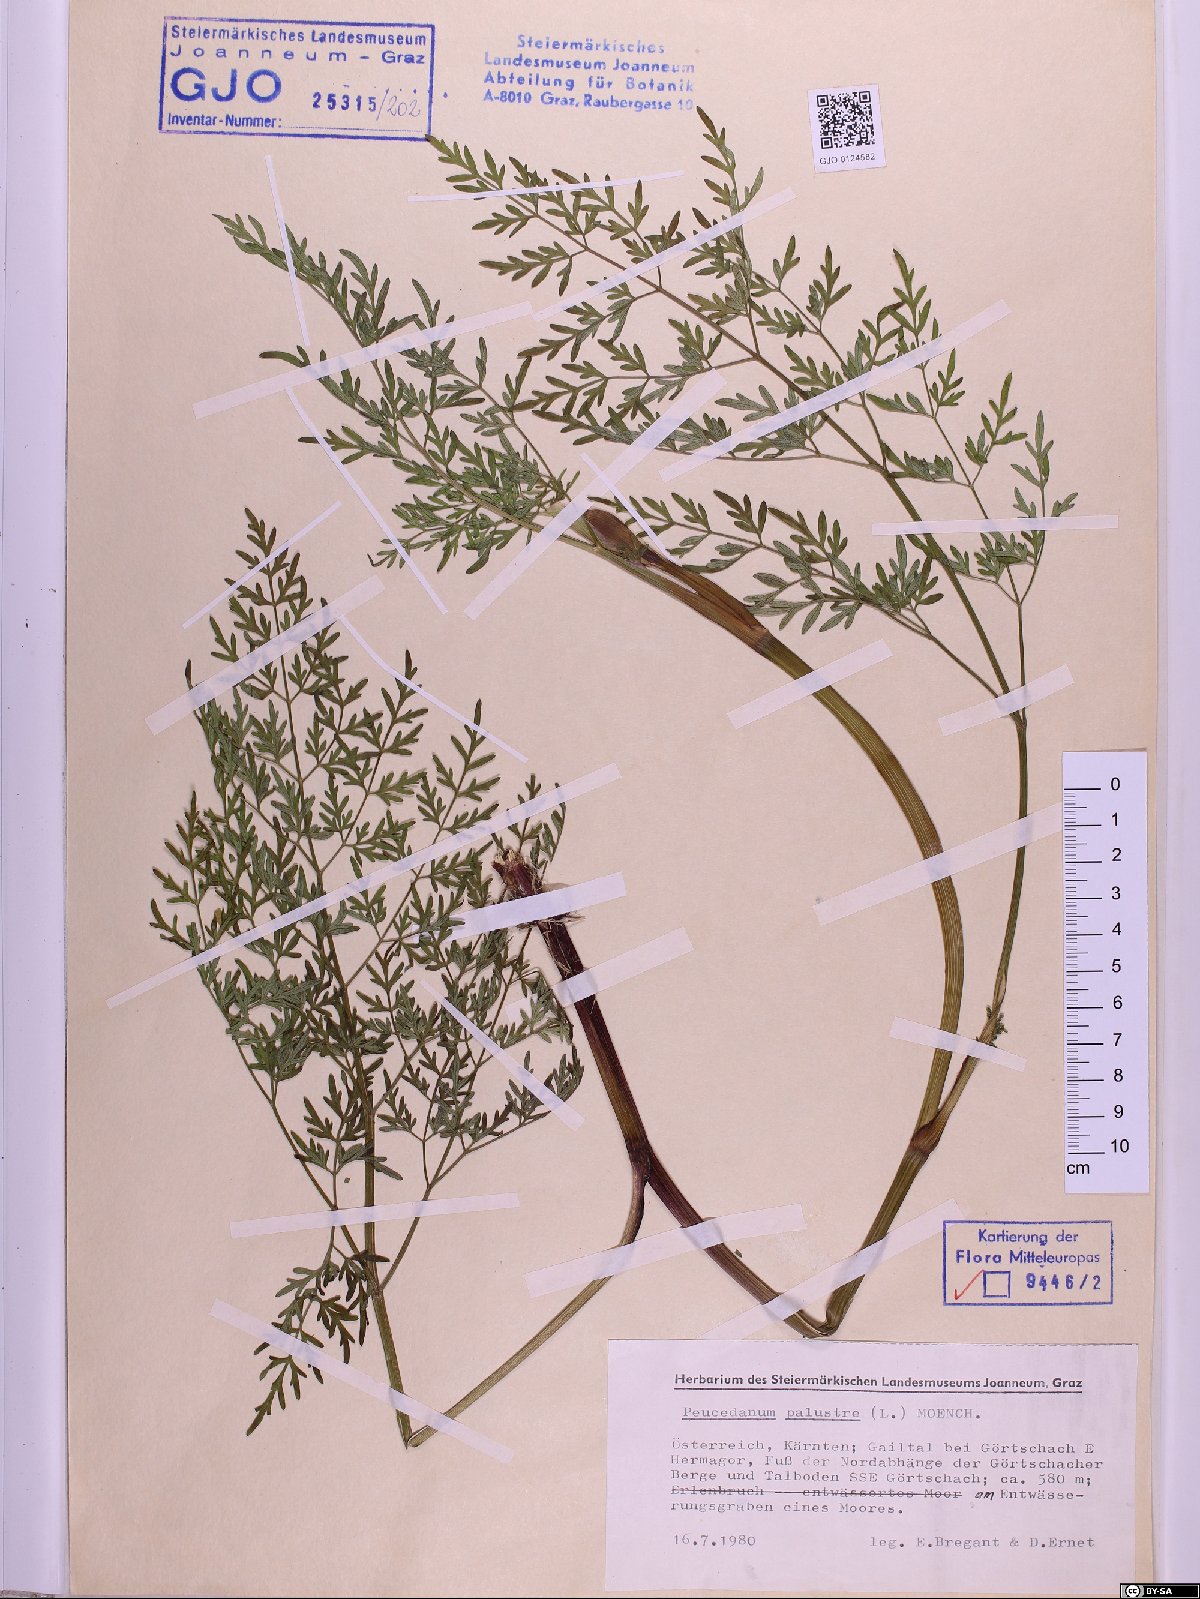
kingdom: Plantae
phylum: Tracheophyta
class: Magnoliopsida
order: Apiales
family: Apiaceae
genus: Thysselinum
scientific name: Thysselinum palustre
